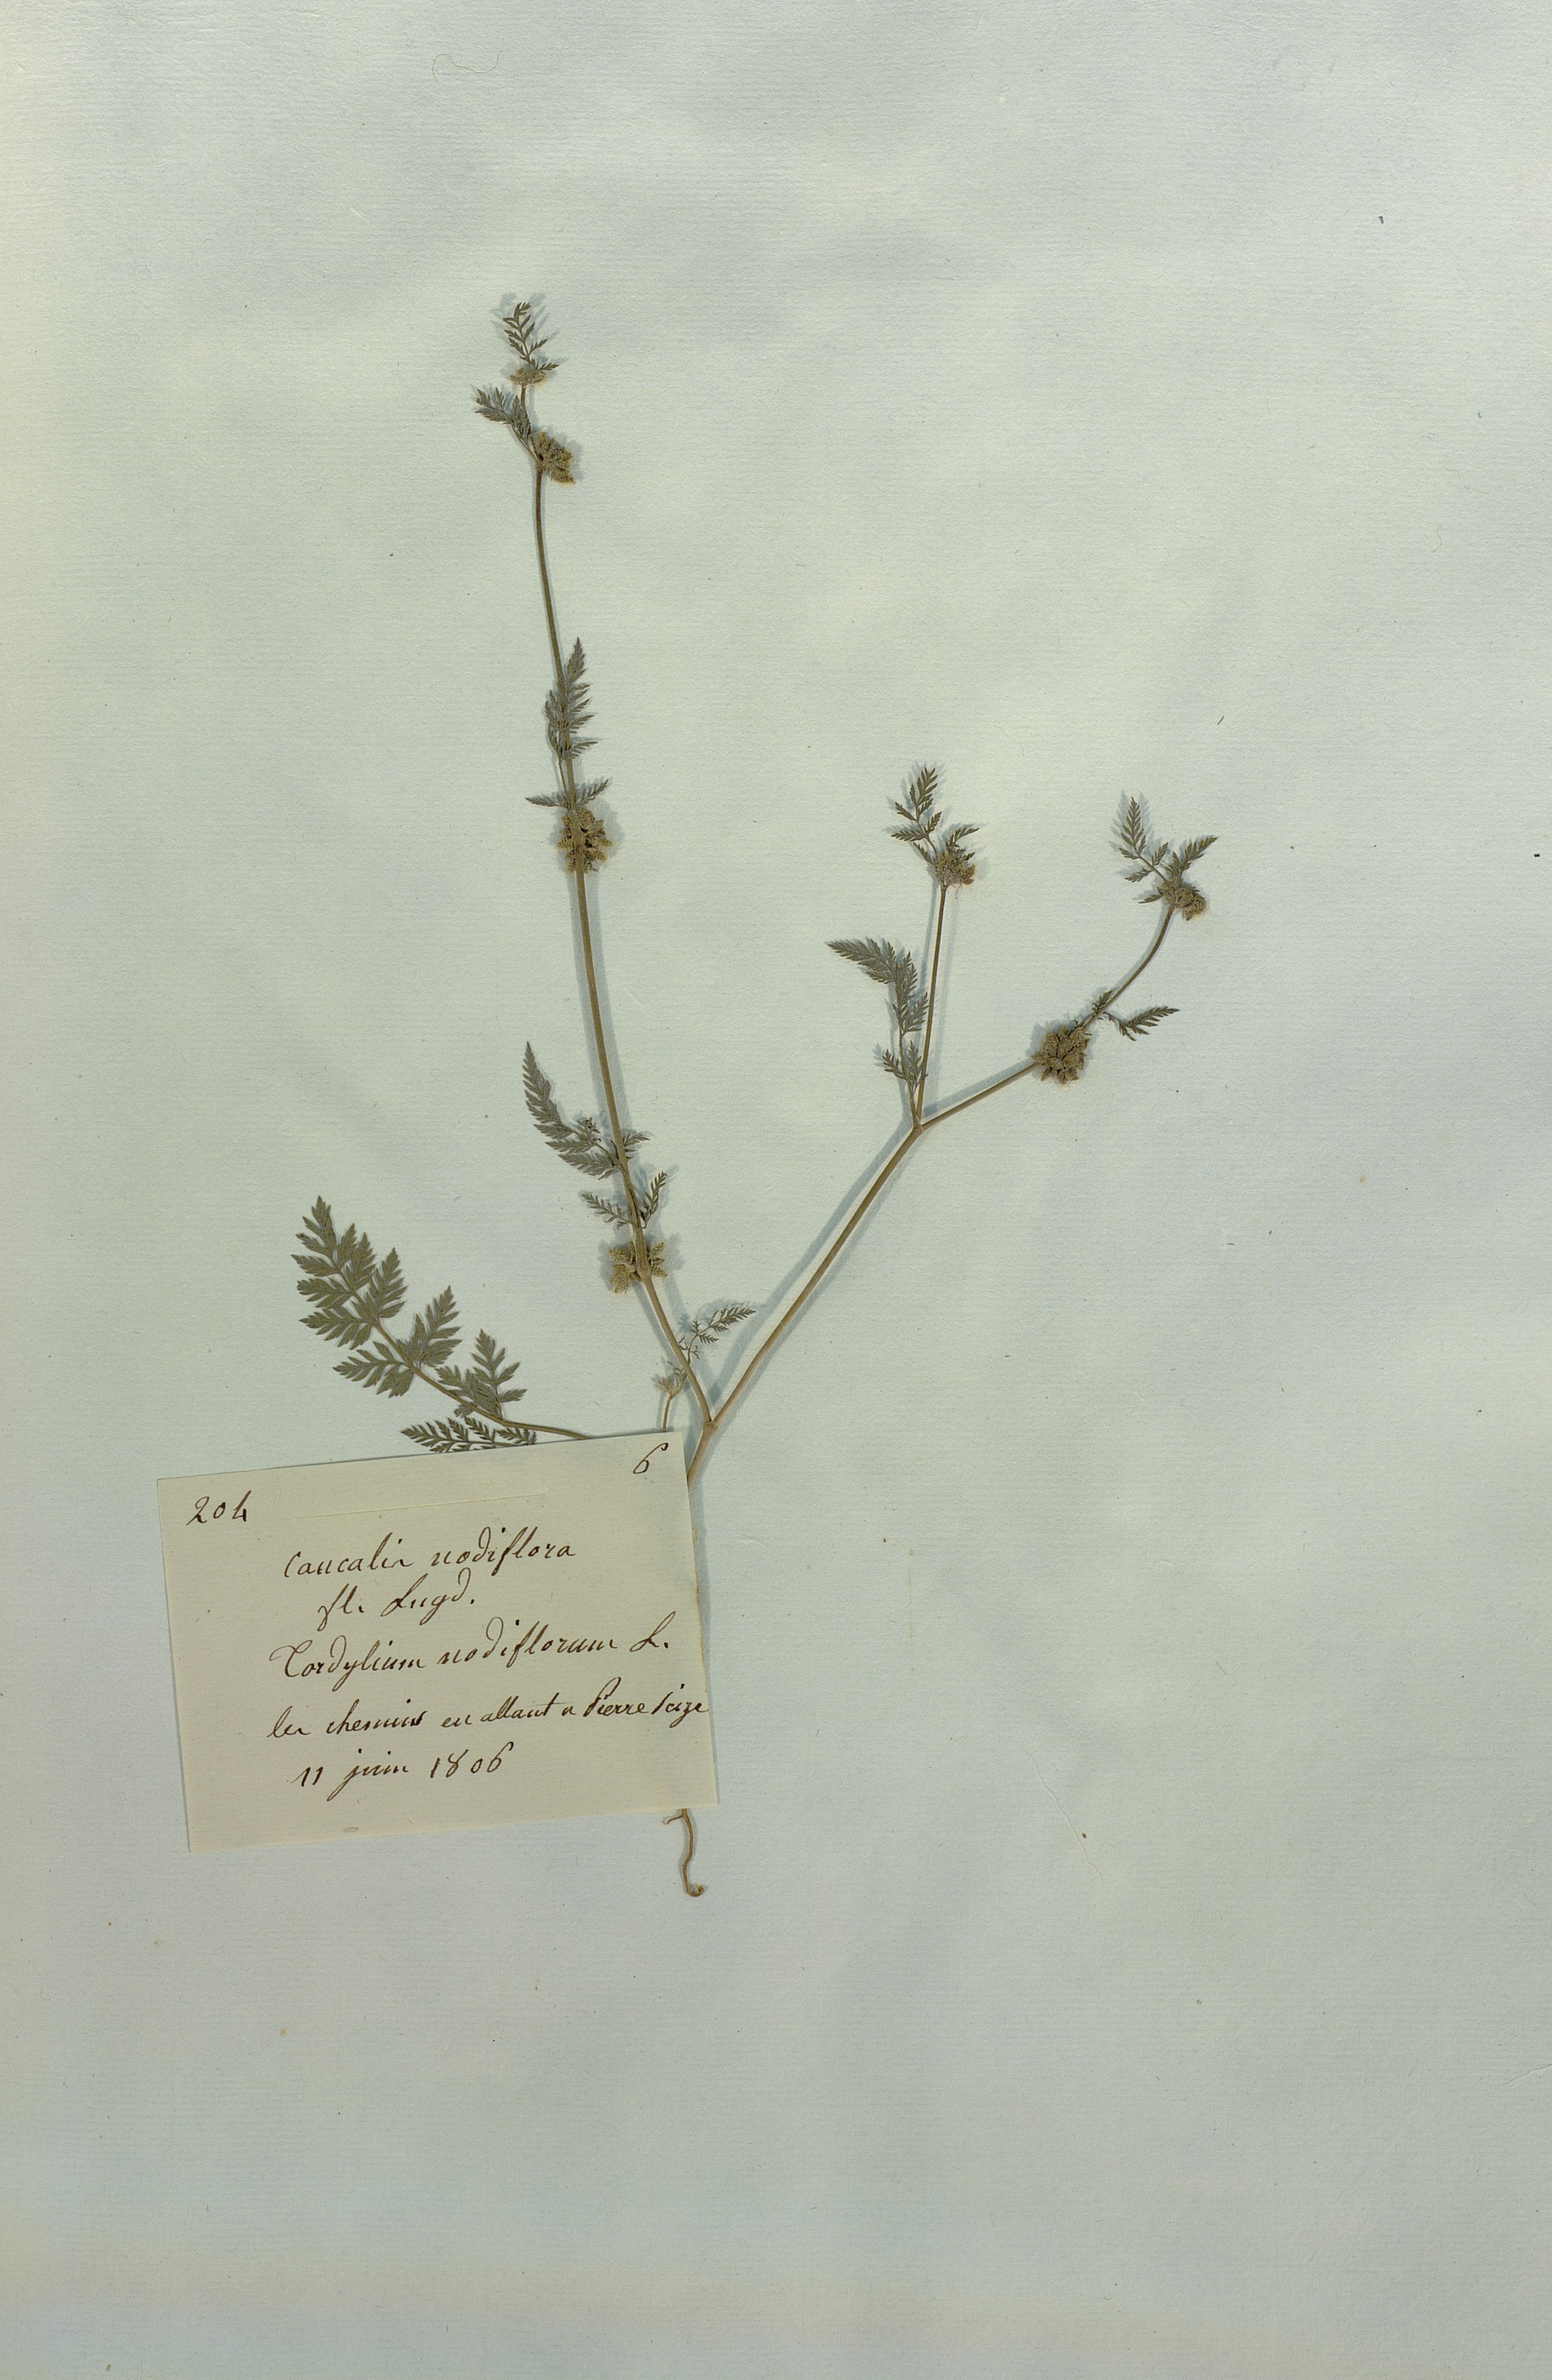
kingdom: Plantae
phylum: Tracheophyta
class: Magnoliopsida
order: Apiales
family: Apiaceae
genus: Torilis
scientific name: Torilis nodosa
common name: Knotted hedge-parsley
